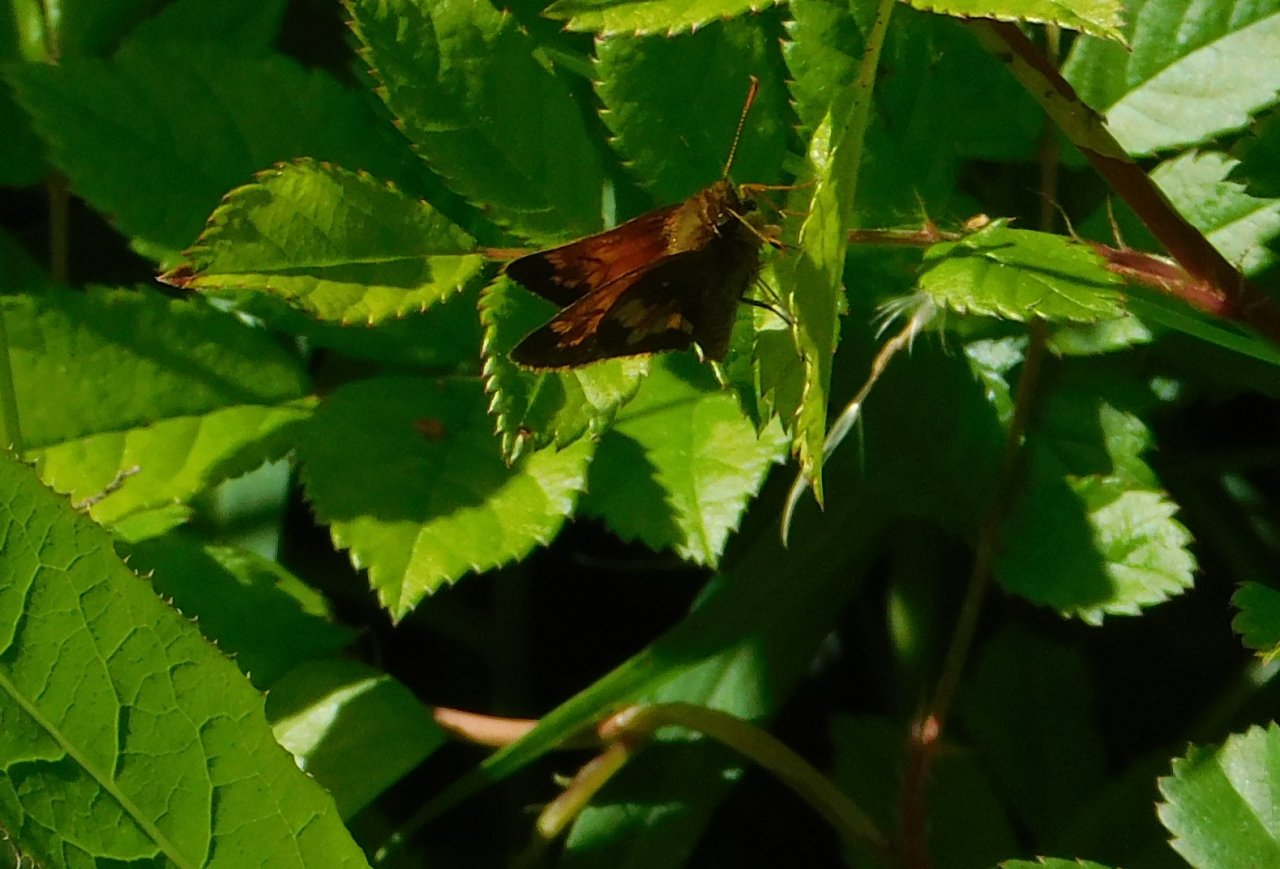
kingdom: Animalia
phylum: Arthropoda
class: Insecta
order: Lepidoptera
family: Hesperiidae
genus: Lon
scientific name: Lon hobomok
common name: Hobomok Skipper
